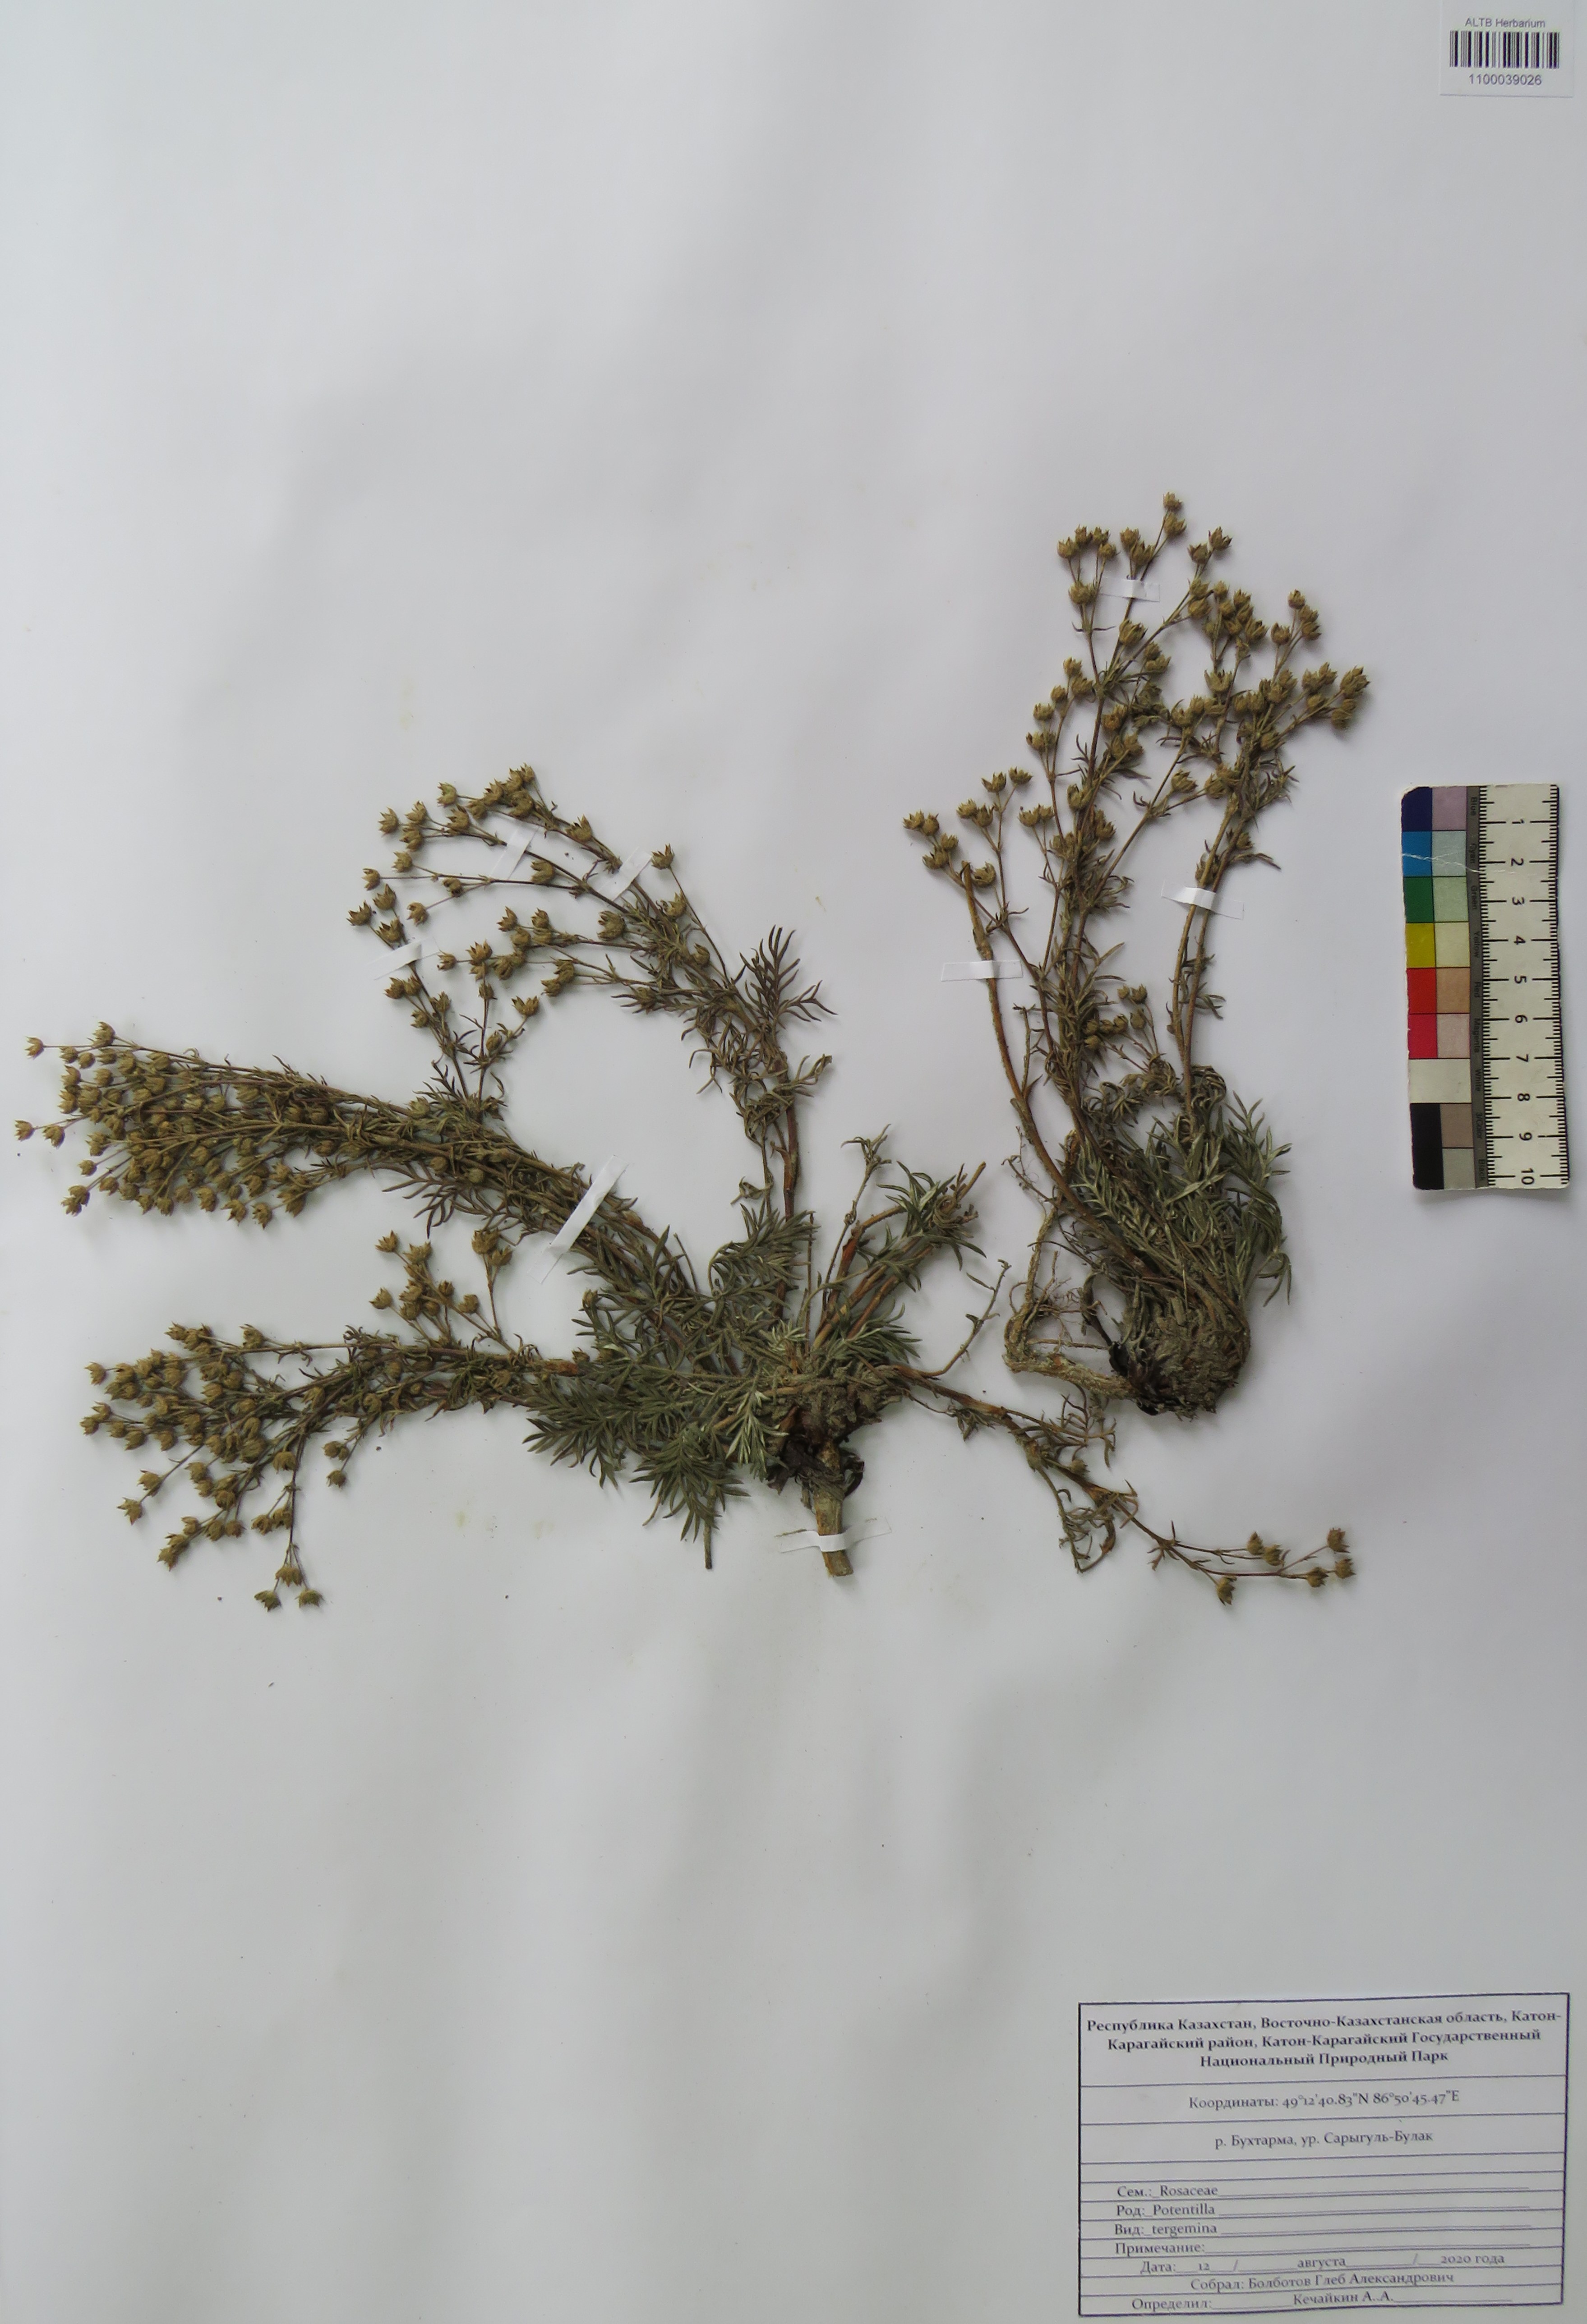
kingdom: Plantae
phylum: Tracheophyta
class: Magnoliopsida
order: Rosales
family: Rosaceae
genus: Potentilla
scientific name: Potentilla tergemina
